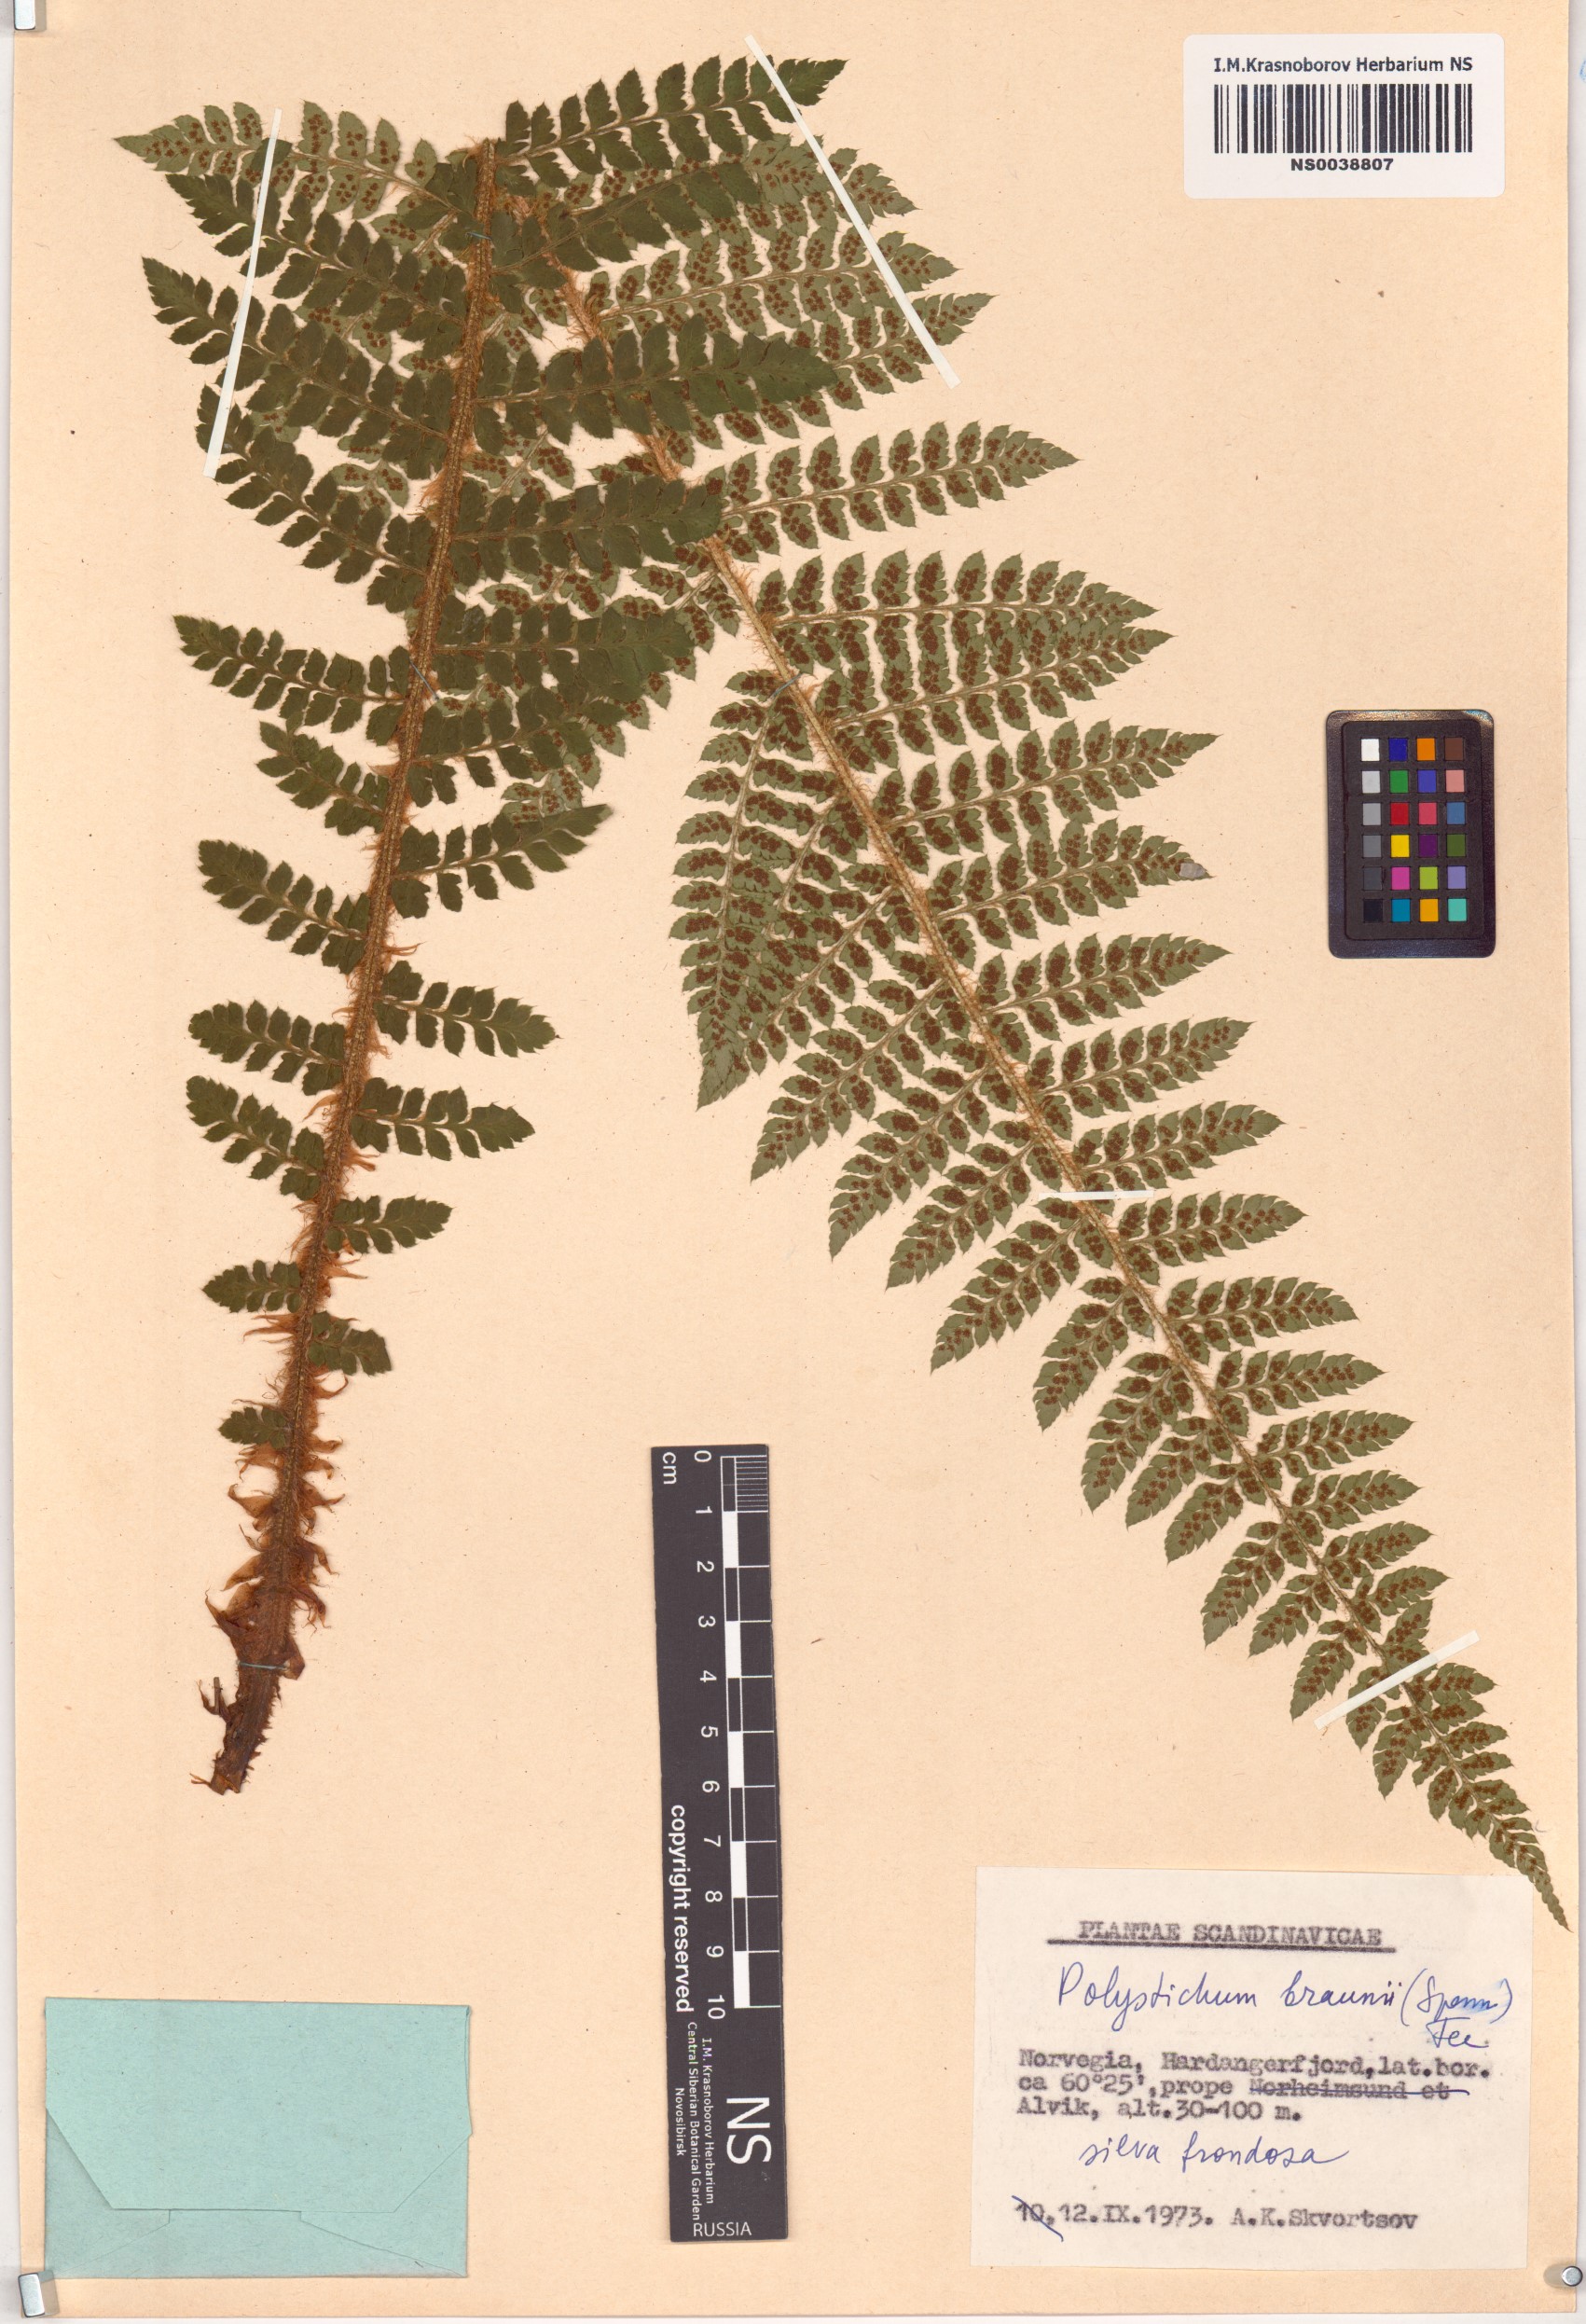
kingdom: Plantae
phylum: Tracheophyta
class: Polypodiopsida
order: Polypodiales
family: Dryopteridaceae
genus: Polystichum
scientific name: Polystichum braunii
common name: Braun's holly fern
